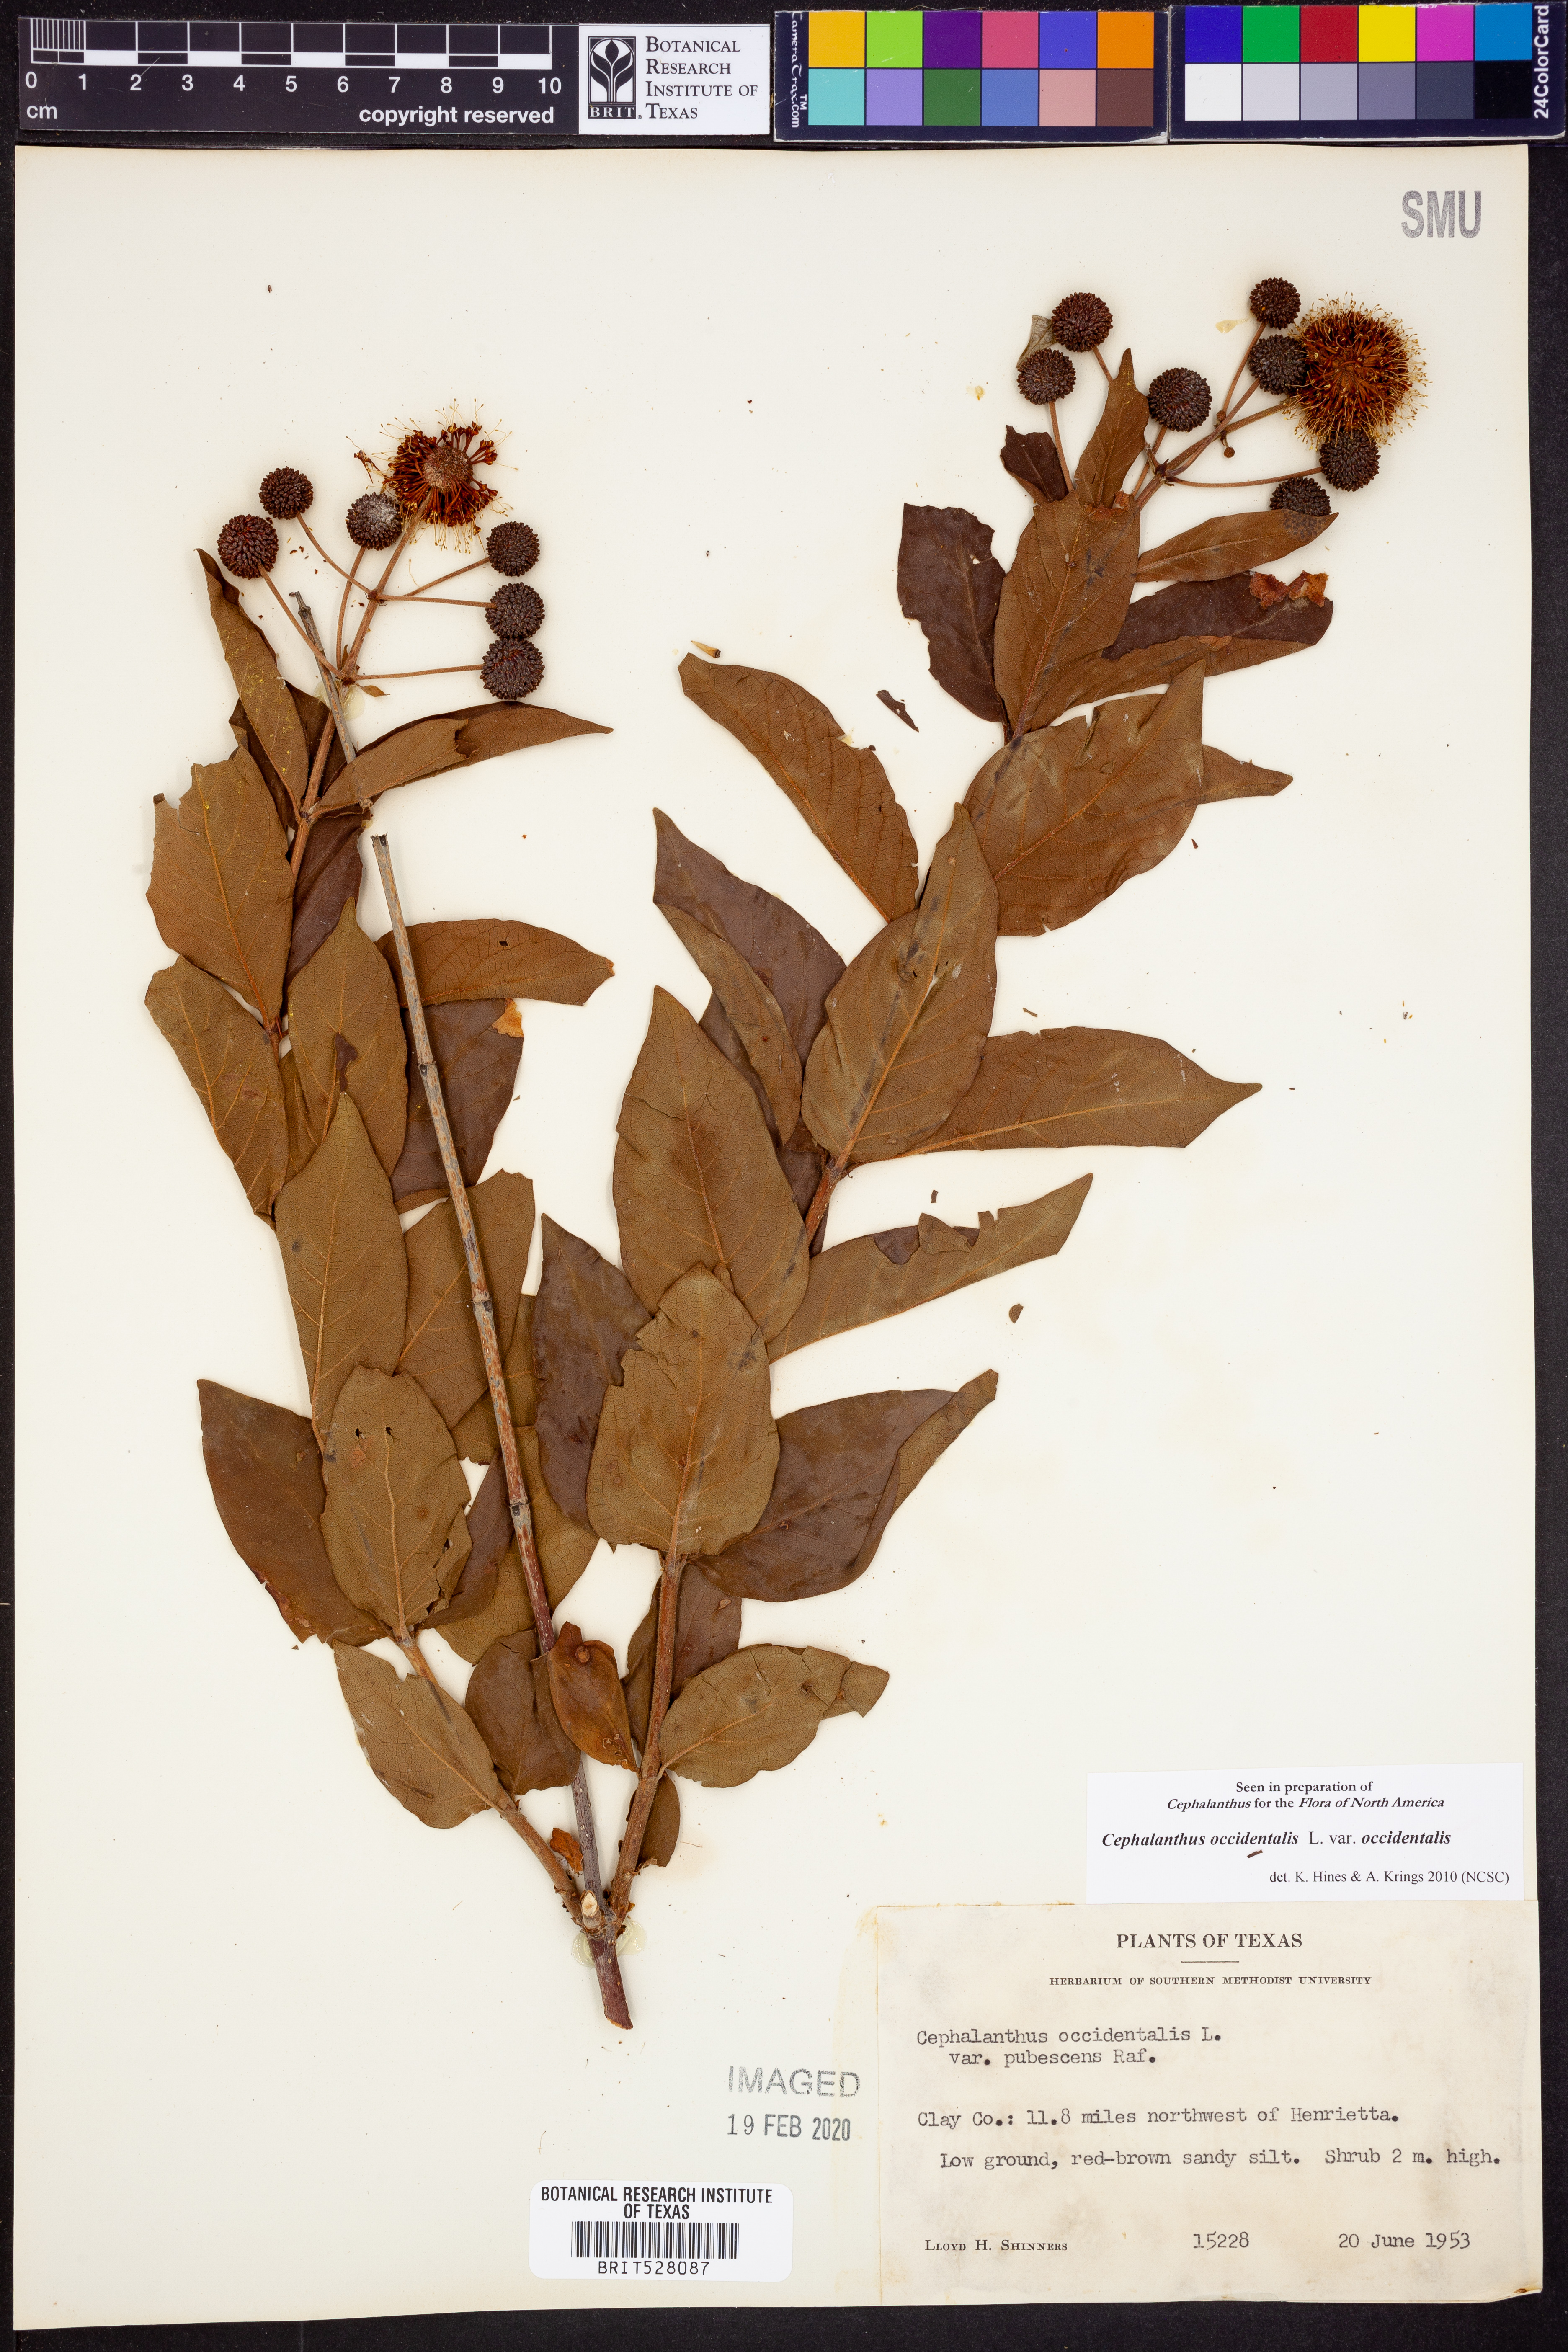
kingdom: Plantae
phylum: Tracheophyta
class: Magnoliopsida
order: Gentianales
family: Rubiaceae
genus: Cephalanthus
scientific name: Cephalanthus occidentalis
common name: Button-willow
